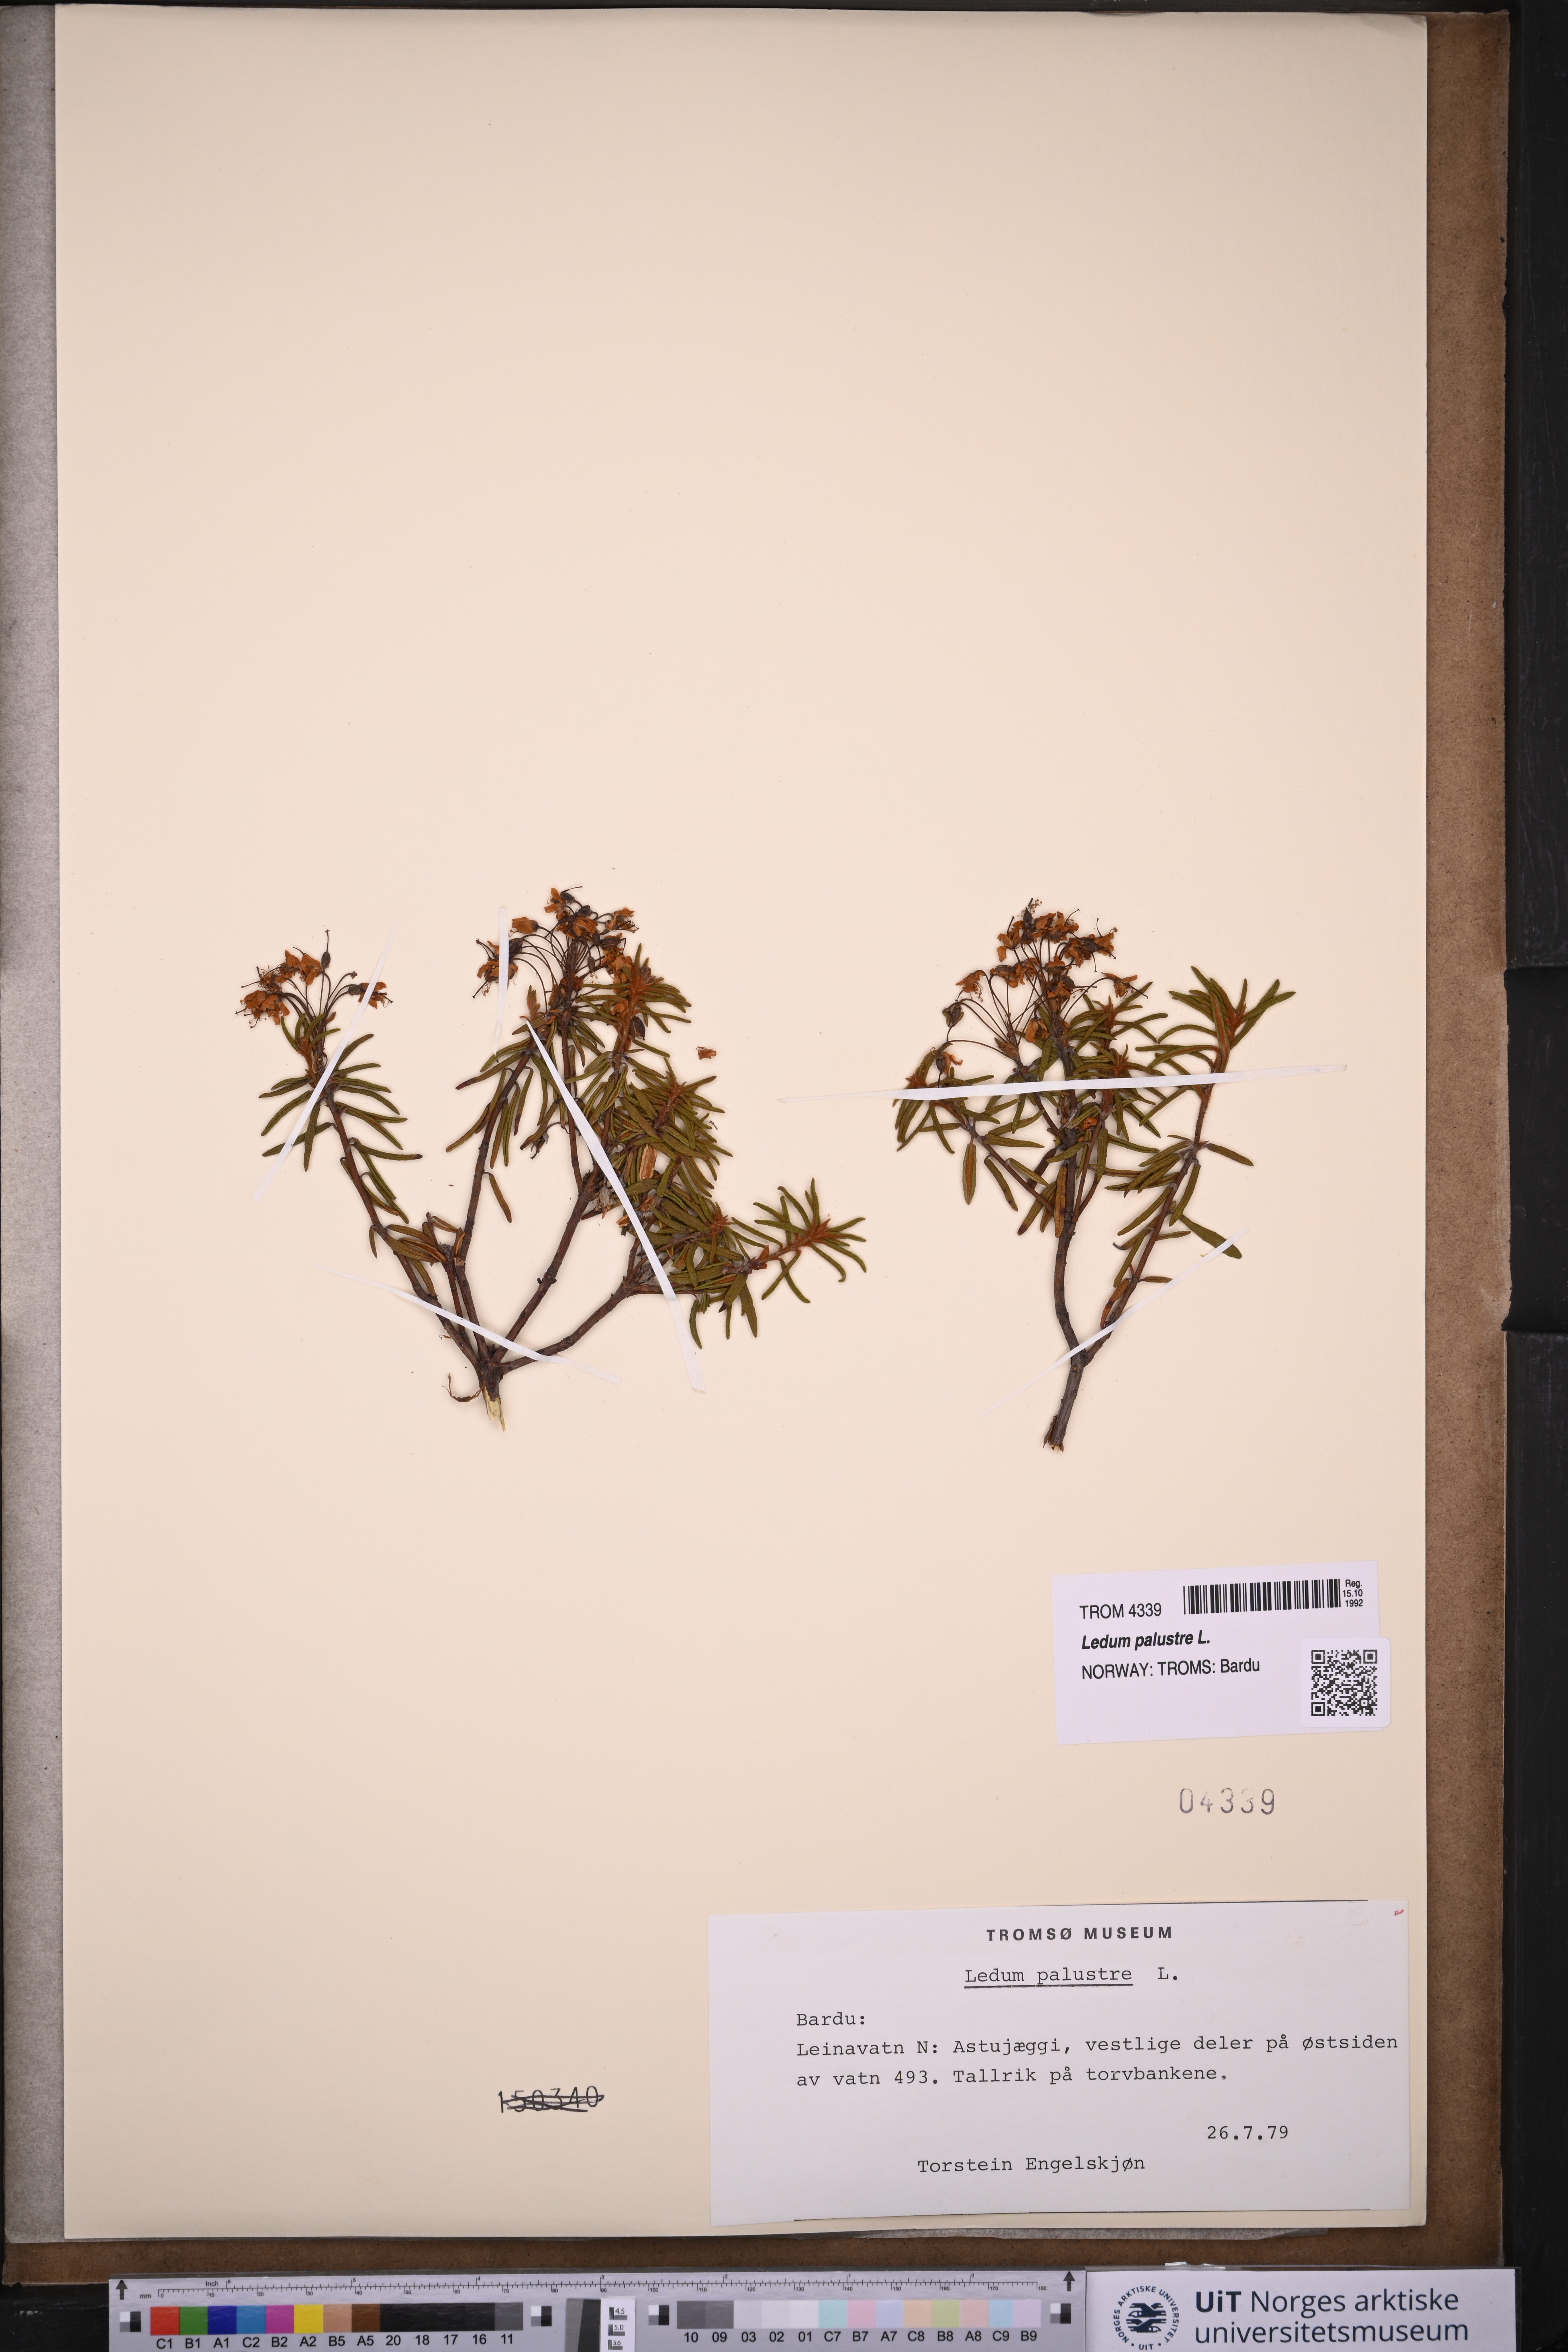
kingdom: Plantae
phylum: Tracheophyta
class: Magnoliopsida
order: Ericales
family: Ericaceae
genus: Rhododendron
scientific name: Rhododendron tomentosum
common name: Marsh labrador tea
